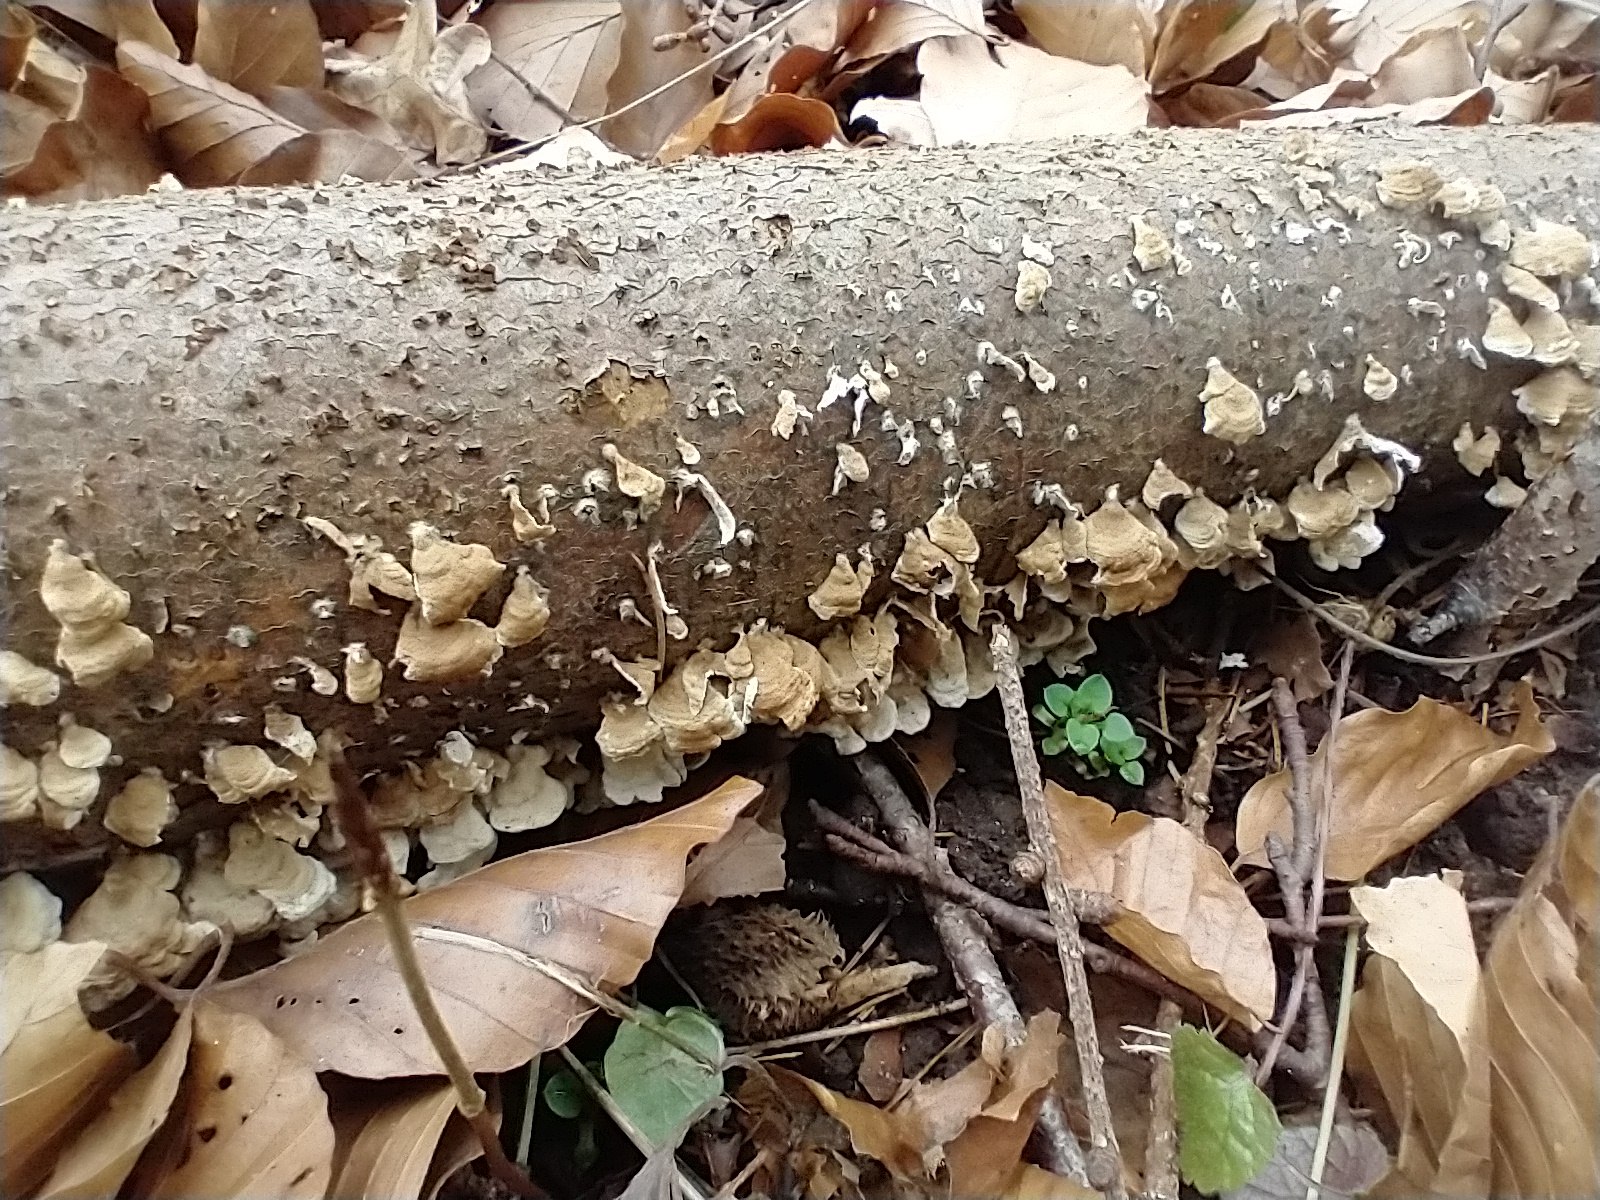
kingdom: Fungi
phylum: Basidiomycota
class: Agaricomycetes
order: Amylocorticiales
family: Amylocorticiaceae
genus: Plicaturopsis
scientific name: Plicaturopsis crispa
